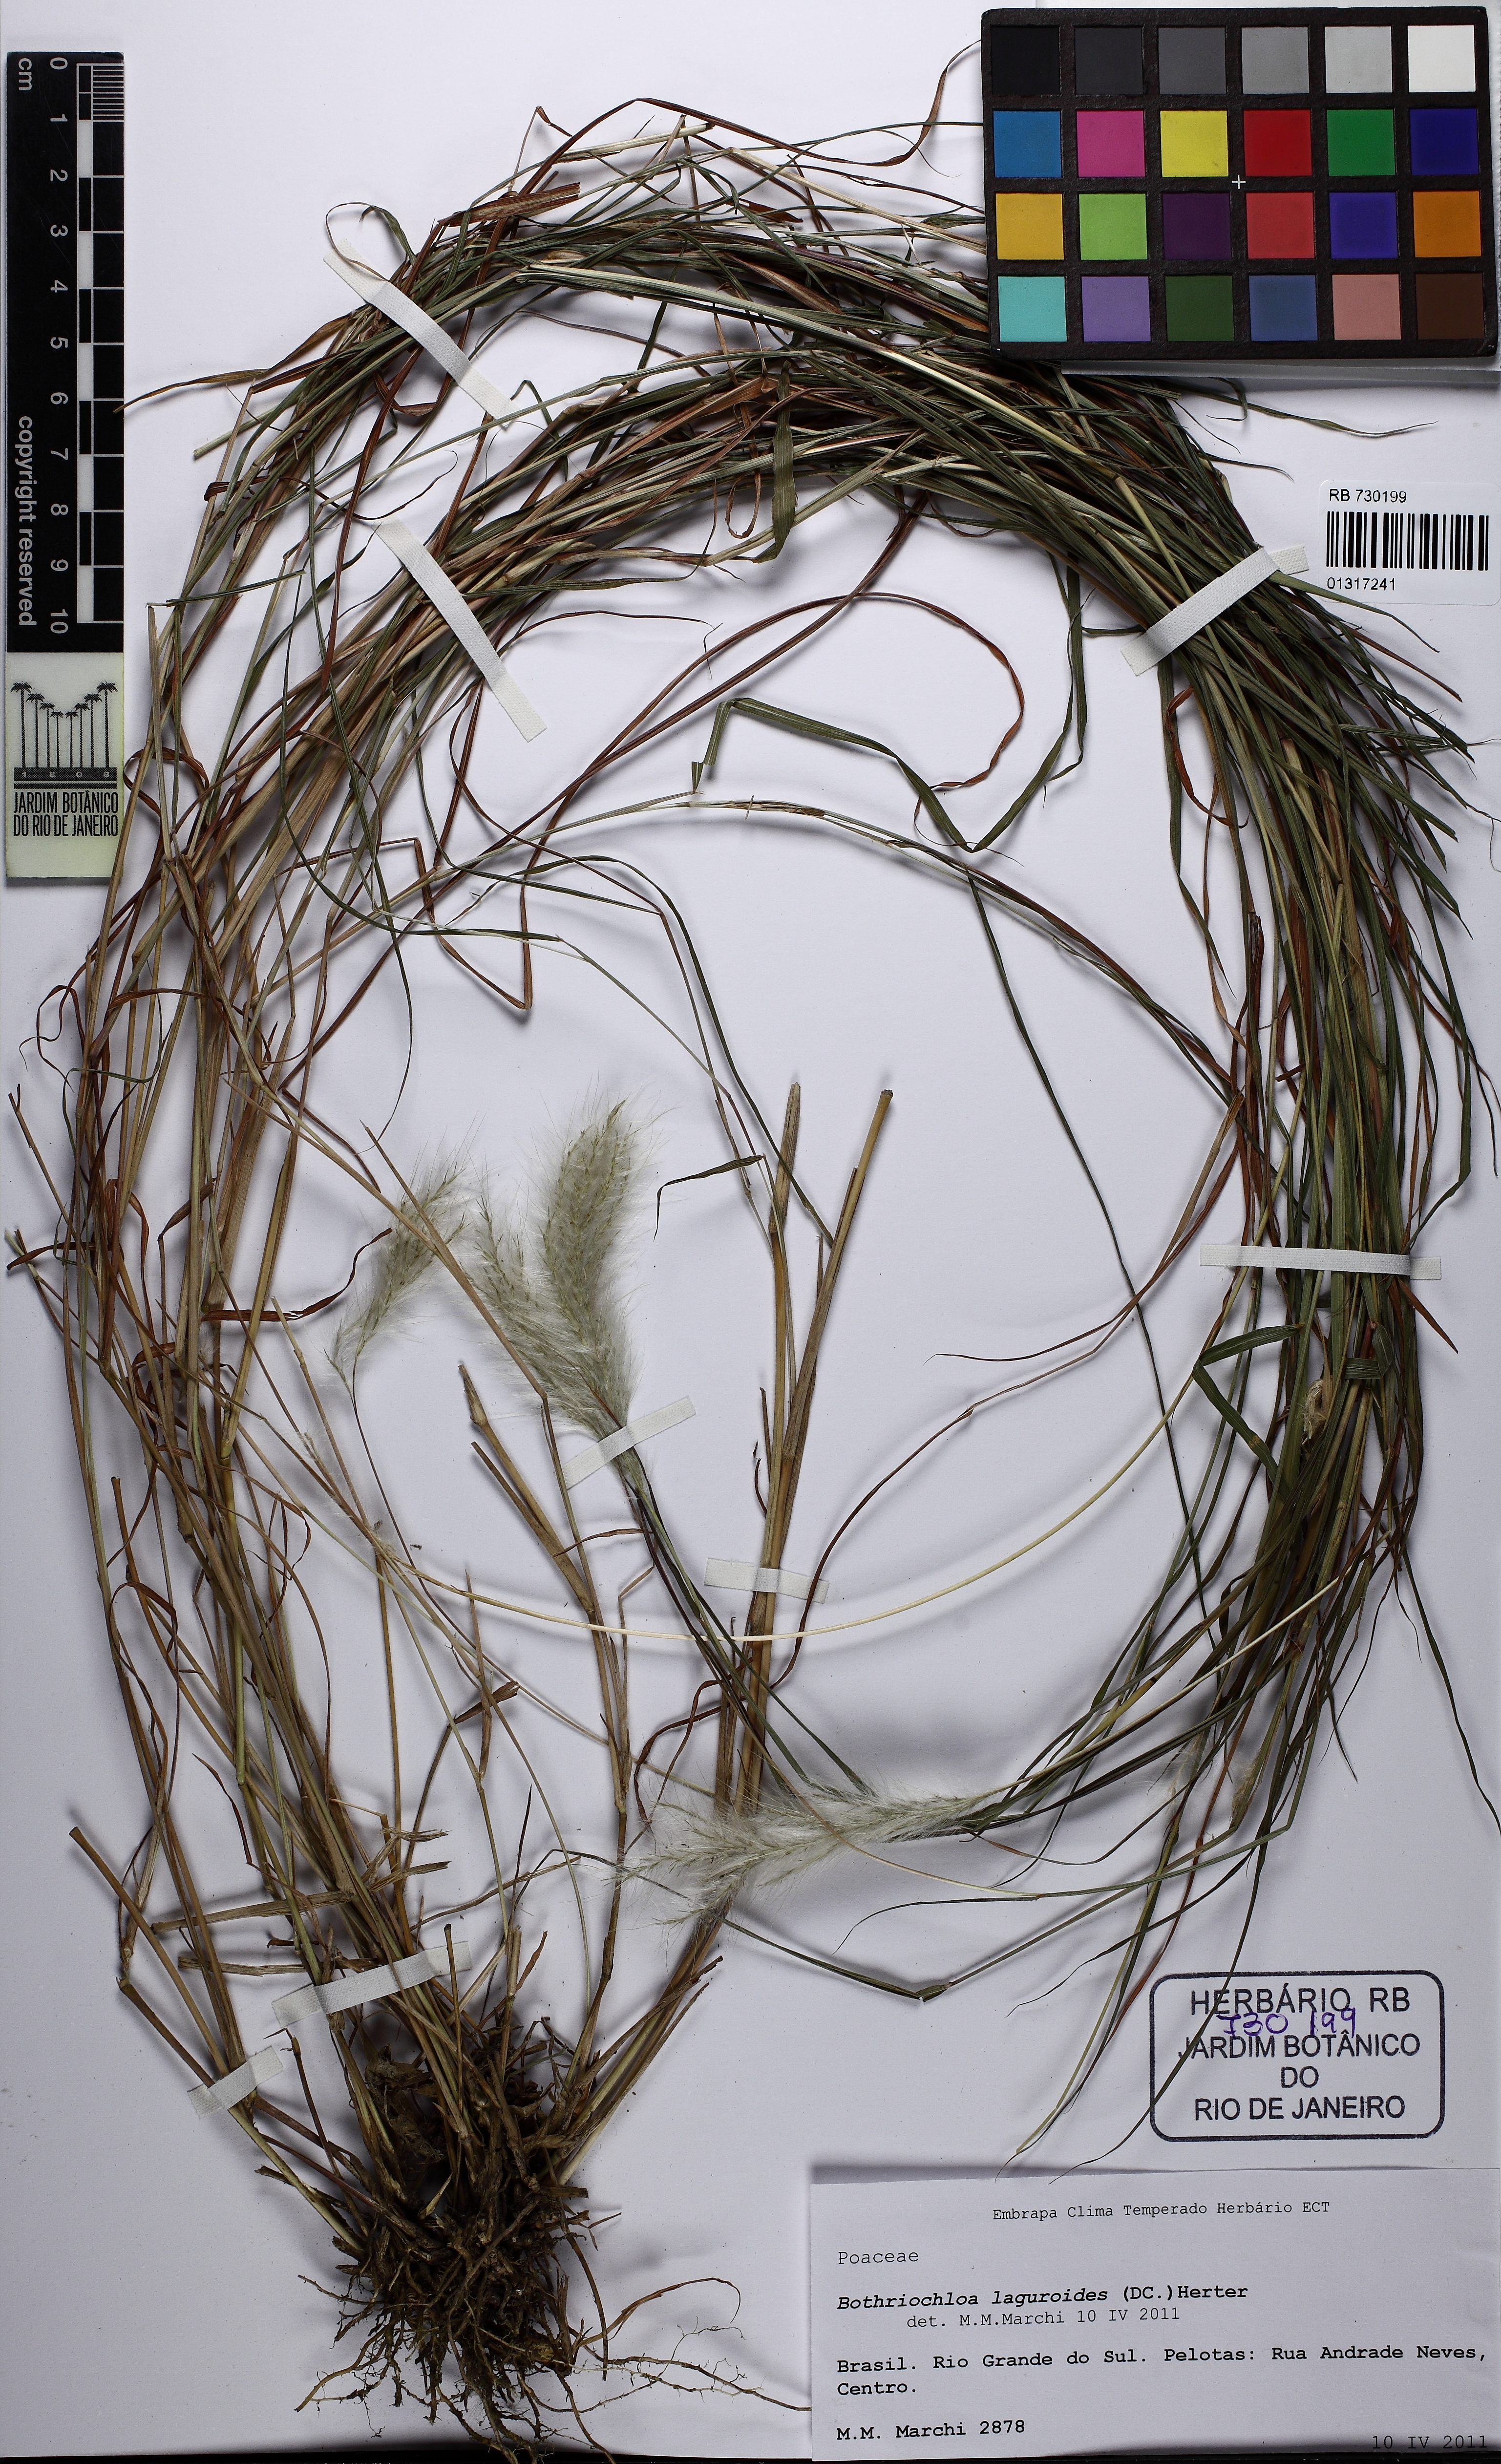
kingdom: Plantae
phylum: Tracheophyta
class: Liliopsida
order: Poales
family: Poaceae
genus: Bothriochloa
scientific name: Bothriochloa laguroides
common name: Silver bluestem
